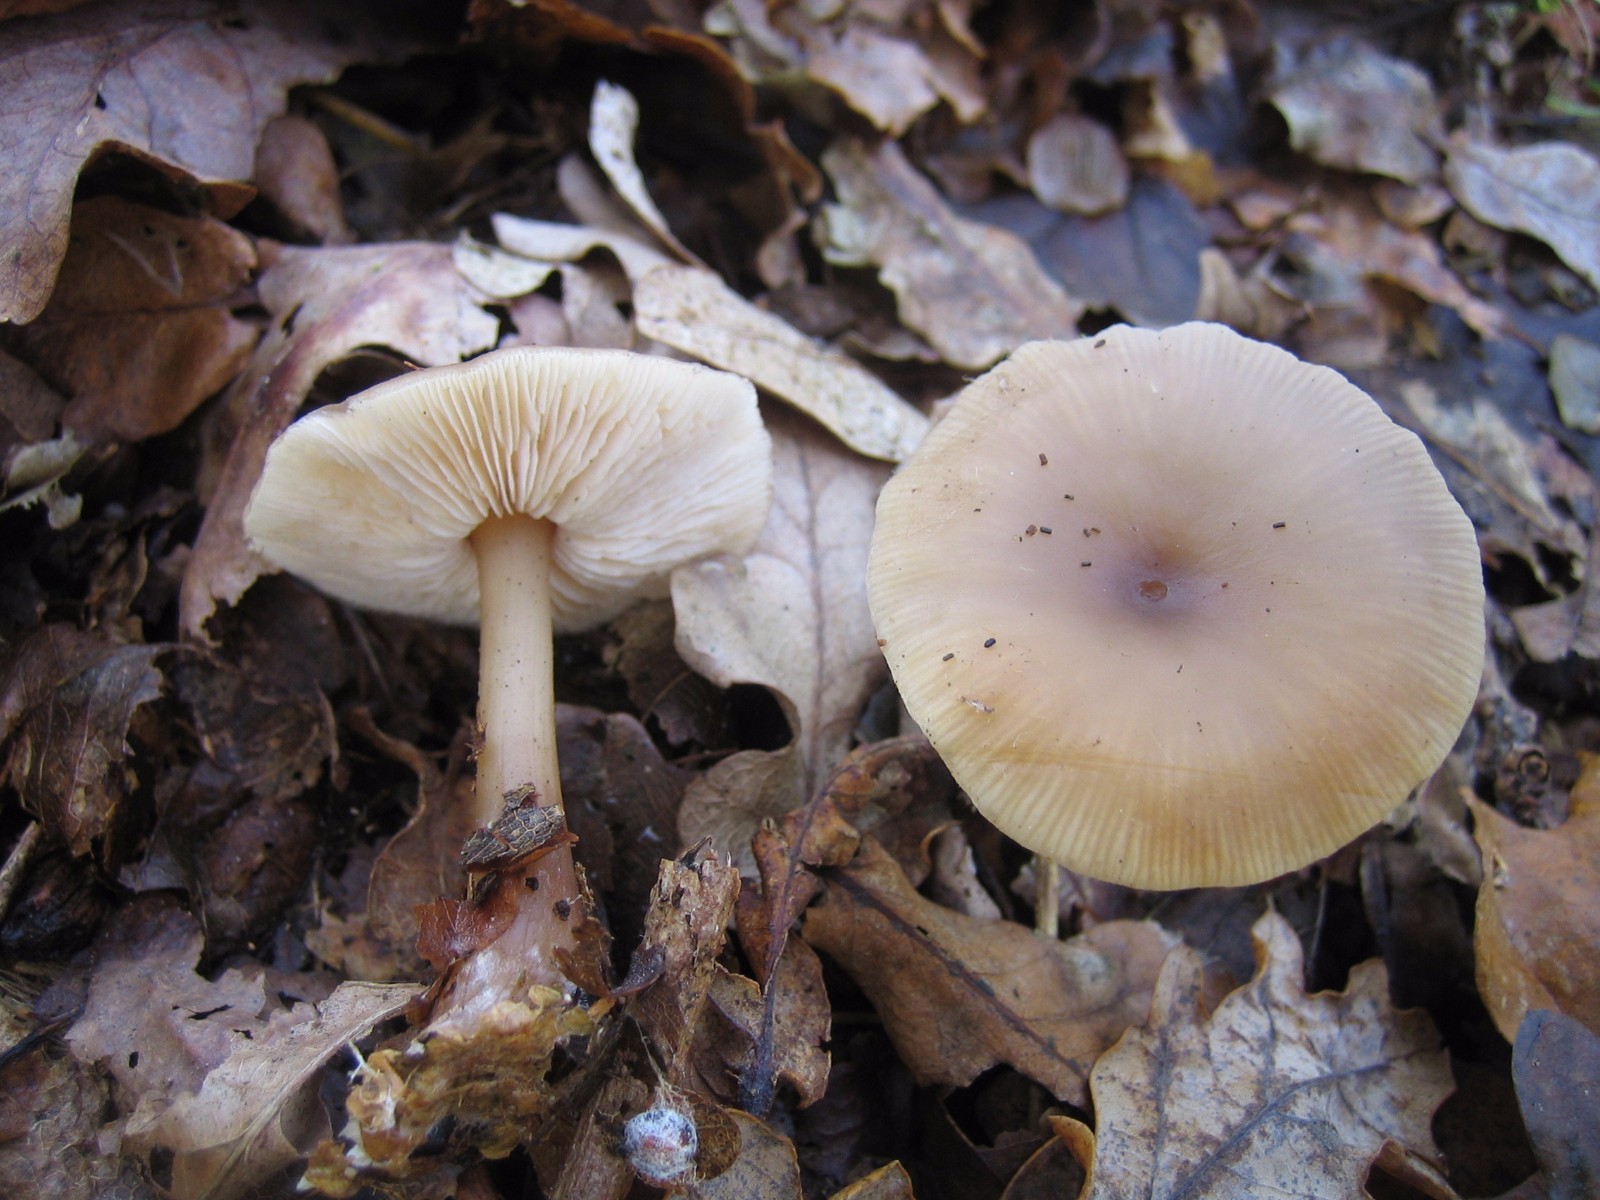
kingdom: Fungi
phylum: Basidiomycota
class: Agaricomycetes
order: Agaricales
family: Omphalotaceae
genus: Rhodocollybia
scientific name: Rhodocollybia asema
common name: horngrå fladhat
